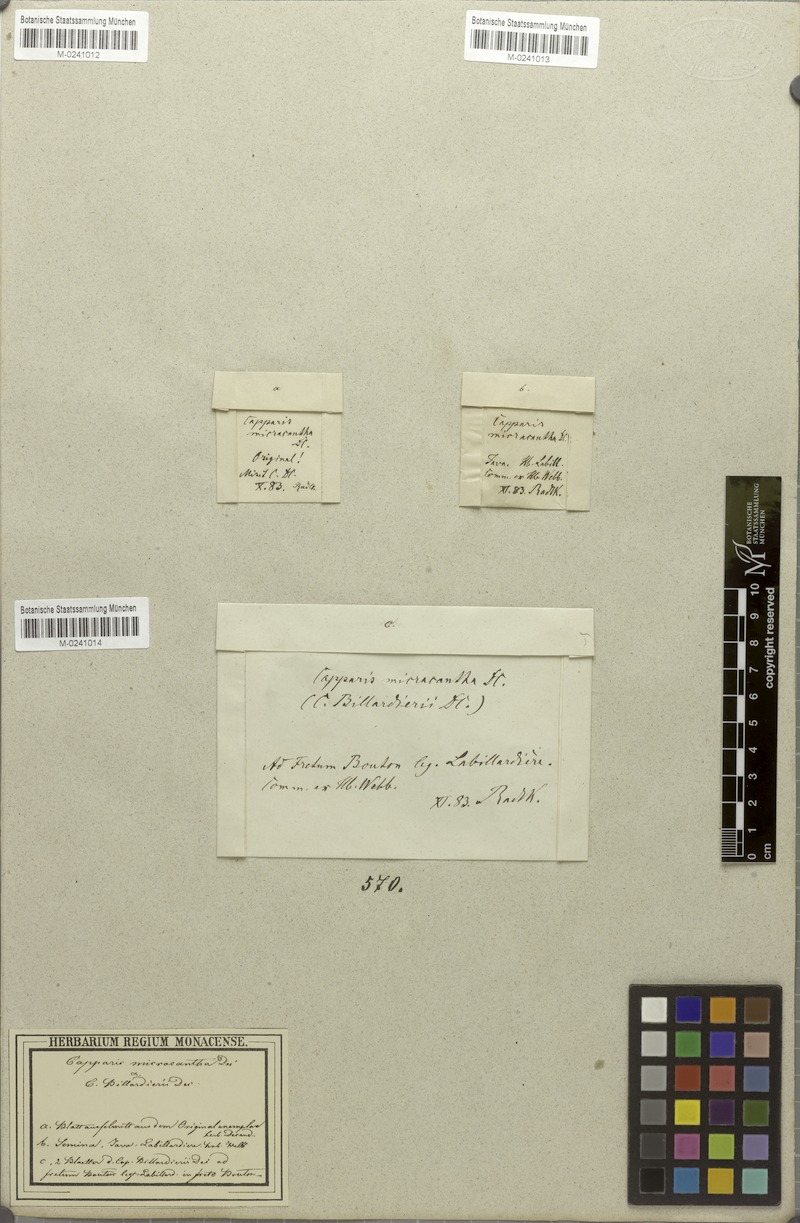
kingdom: Plantae
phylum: Tracheophyta
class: Magnoliopsida
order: Brassicales
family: Capparaceae
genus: Capparis
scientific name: Capparis micracantha
